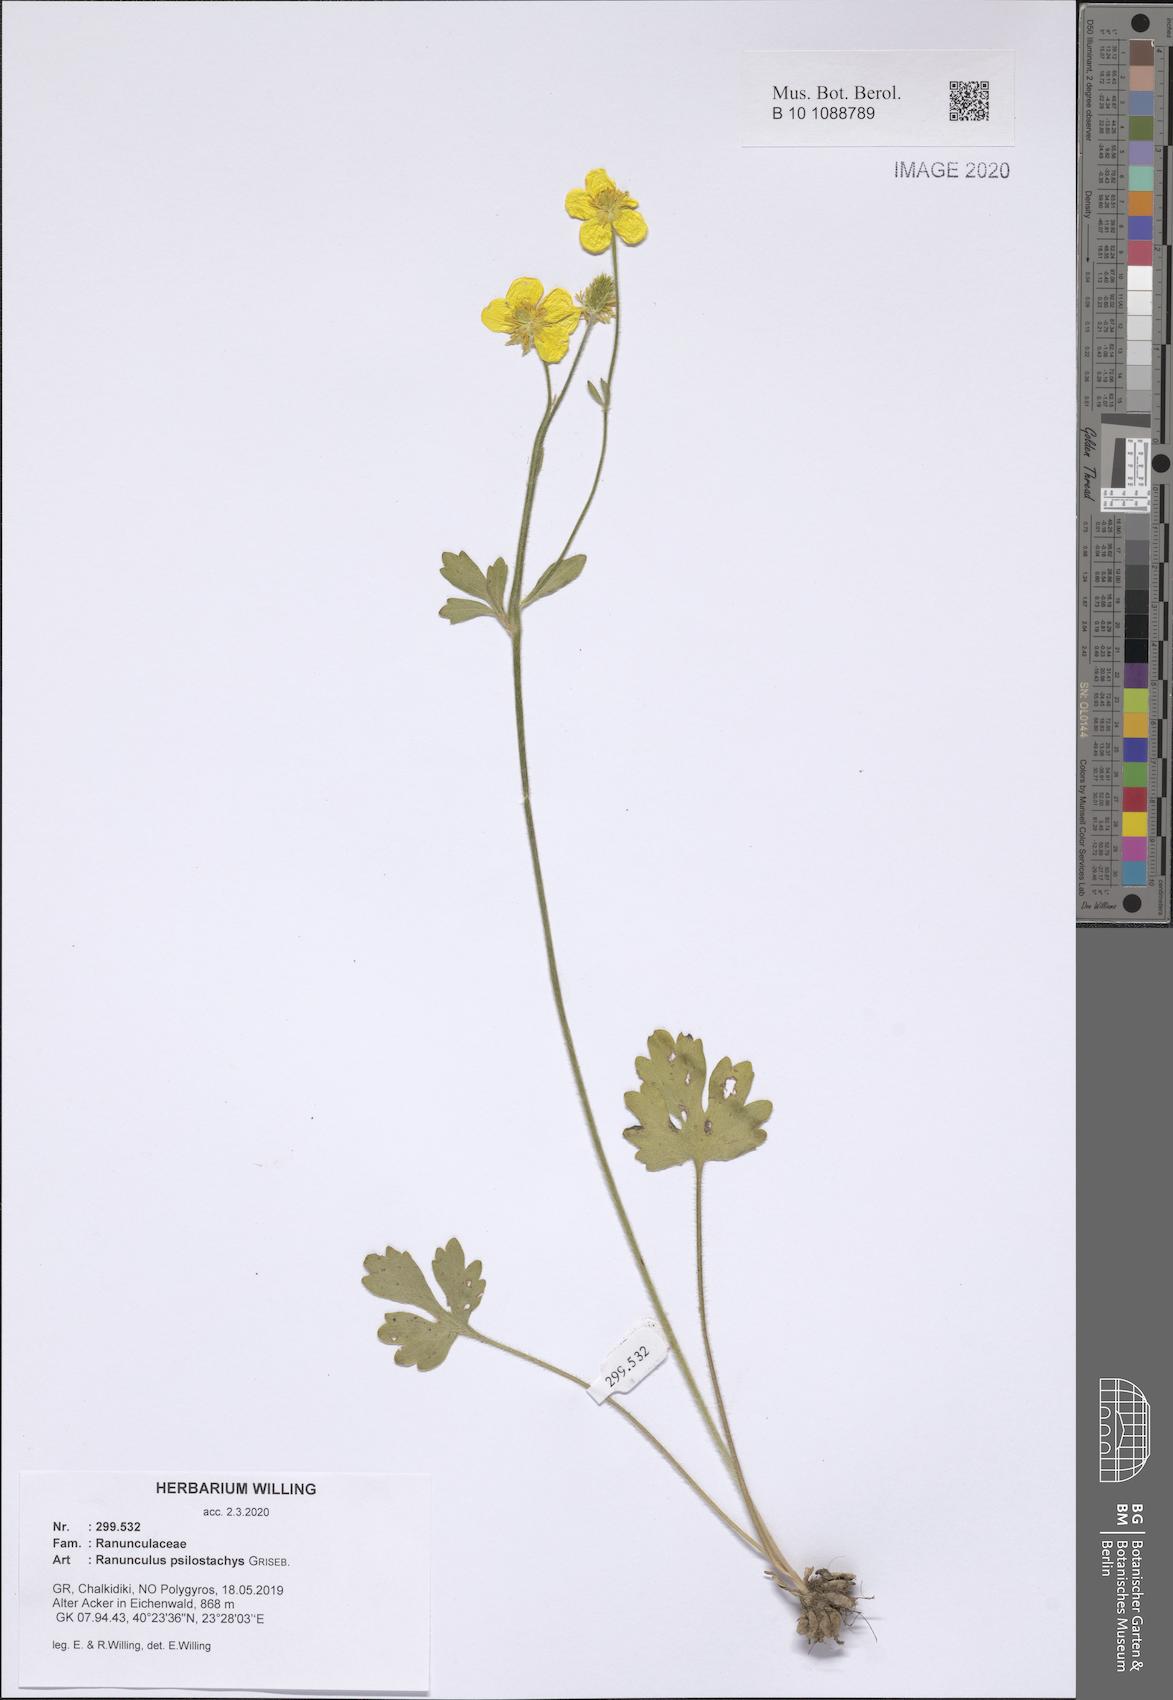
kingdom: Plantae
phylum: Tracheophyta
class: Magnoliopsida
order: Ranunculales
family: Ranunculaceae
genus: Ranunculus
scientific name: Ranunculus psilostachys
